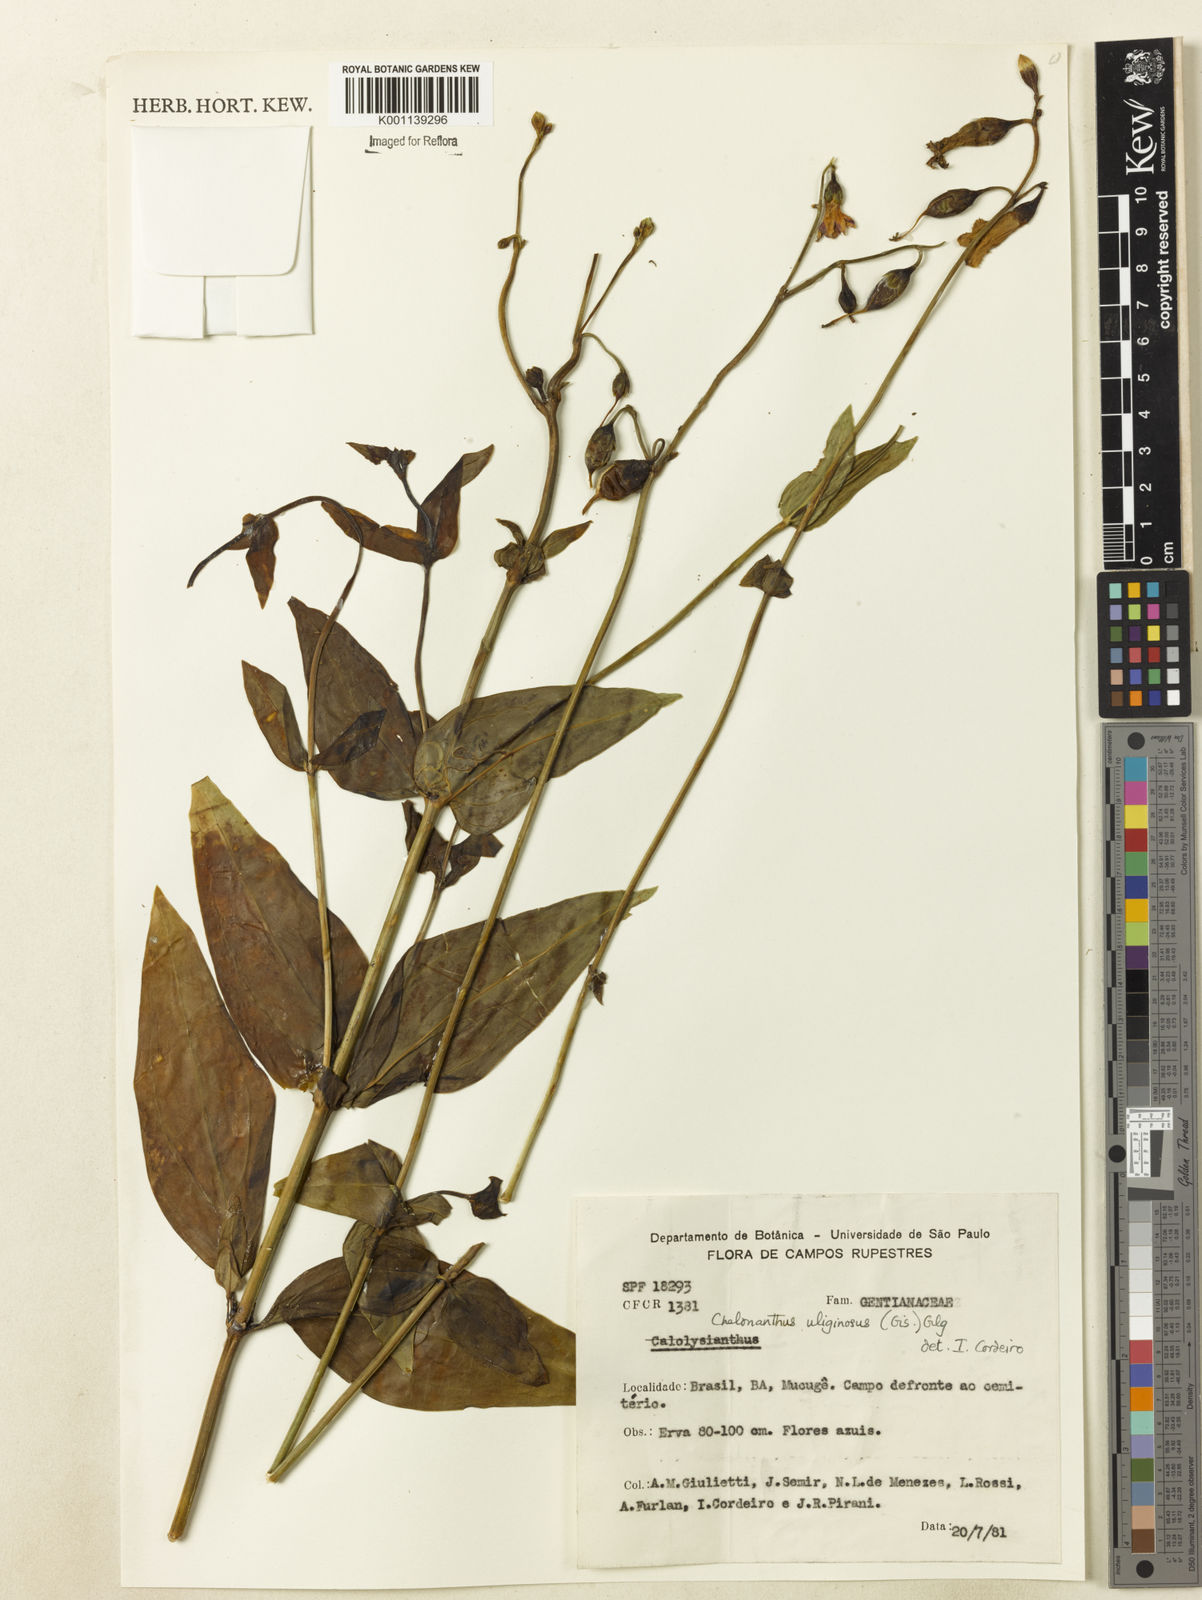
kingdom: Plantae
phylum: Tracheophyta
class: Magnoliopsida
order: Gentianales
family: Gentianaceae
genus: Chelonanthus
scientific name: Chelonanthus purpurascens
